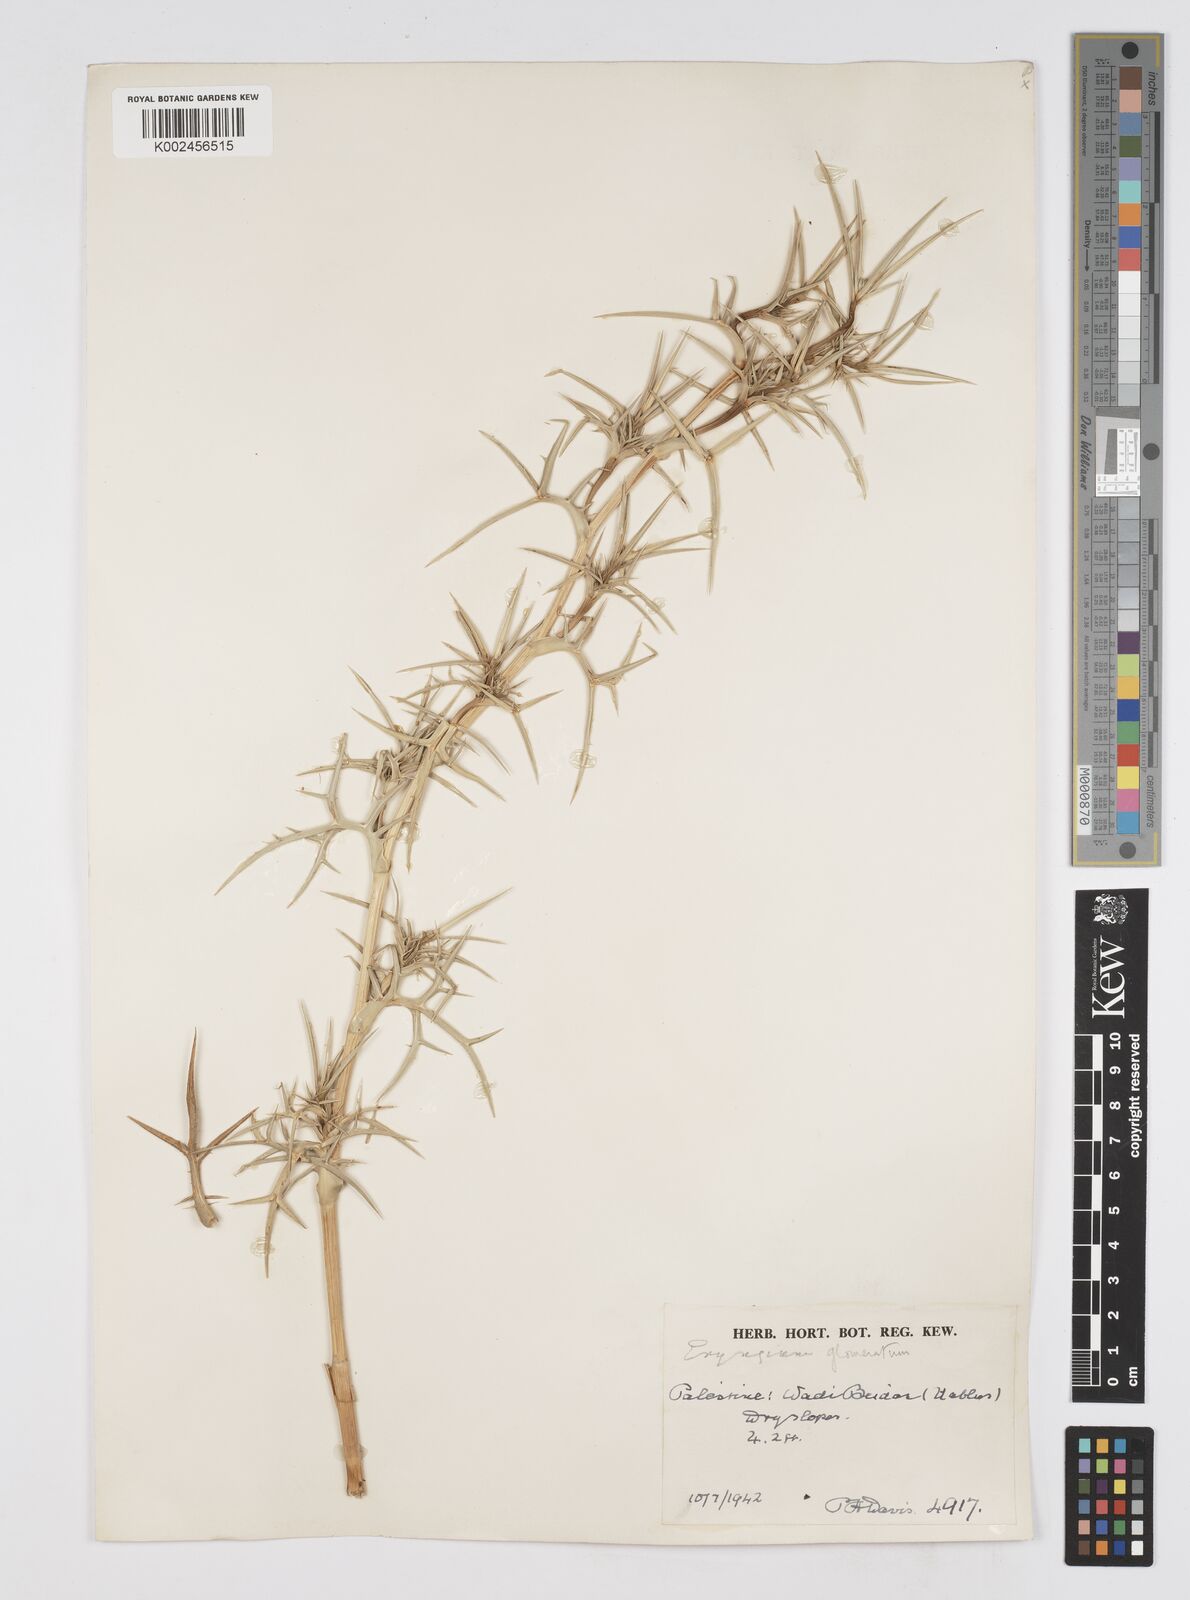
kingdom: Plantae
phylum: Tracheophyta
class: Magnoliopsida
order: Apiales
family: Apiaceae
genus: Eryngium
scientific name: Eryngium glomeratum
